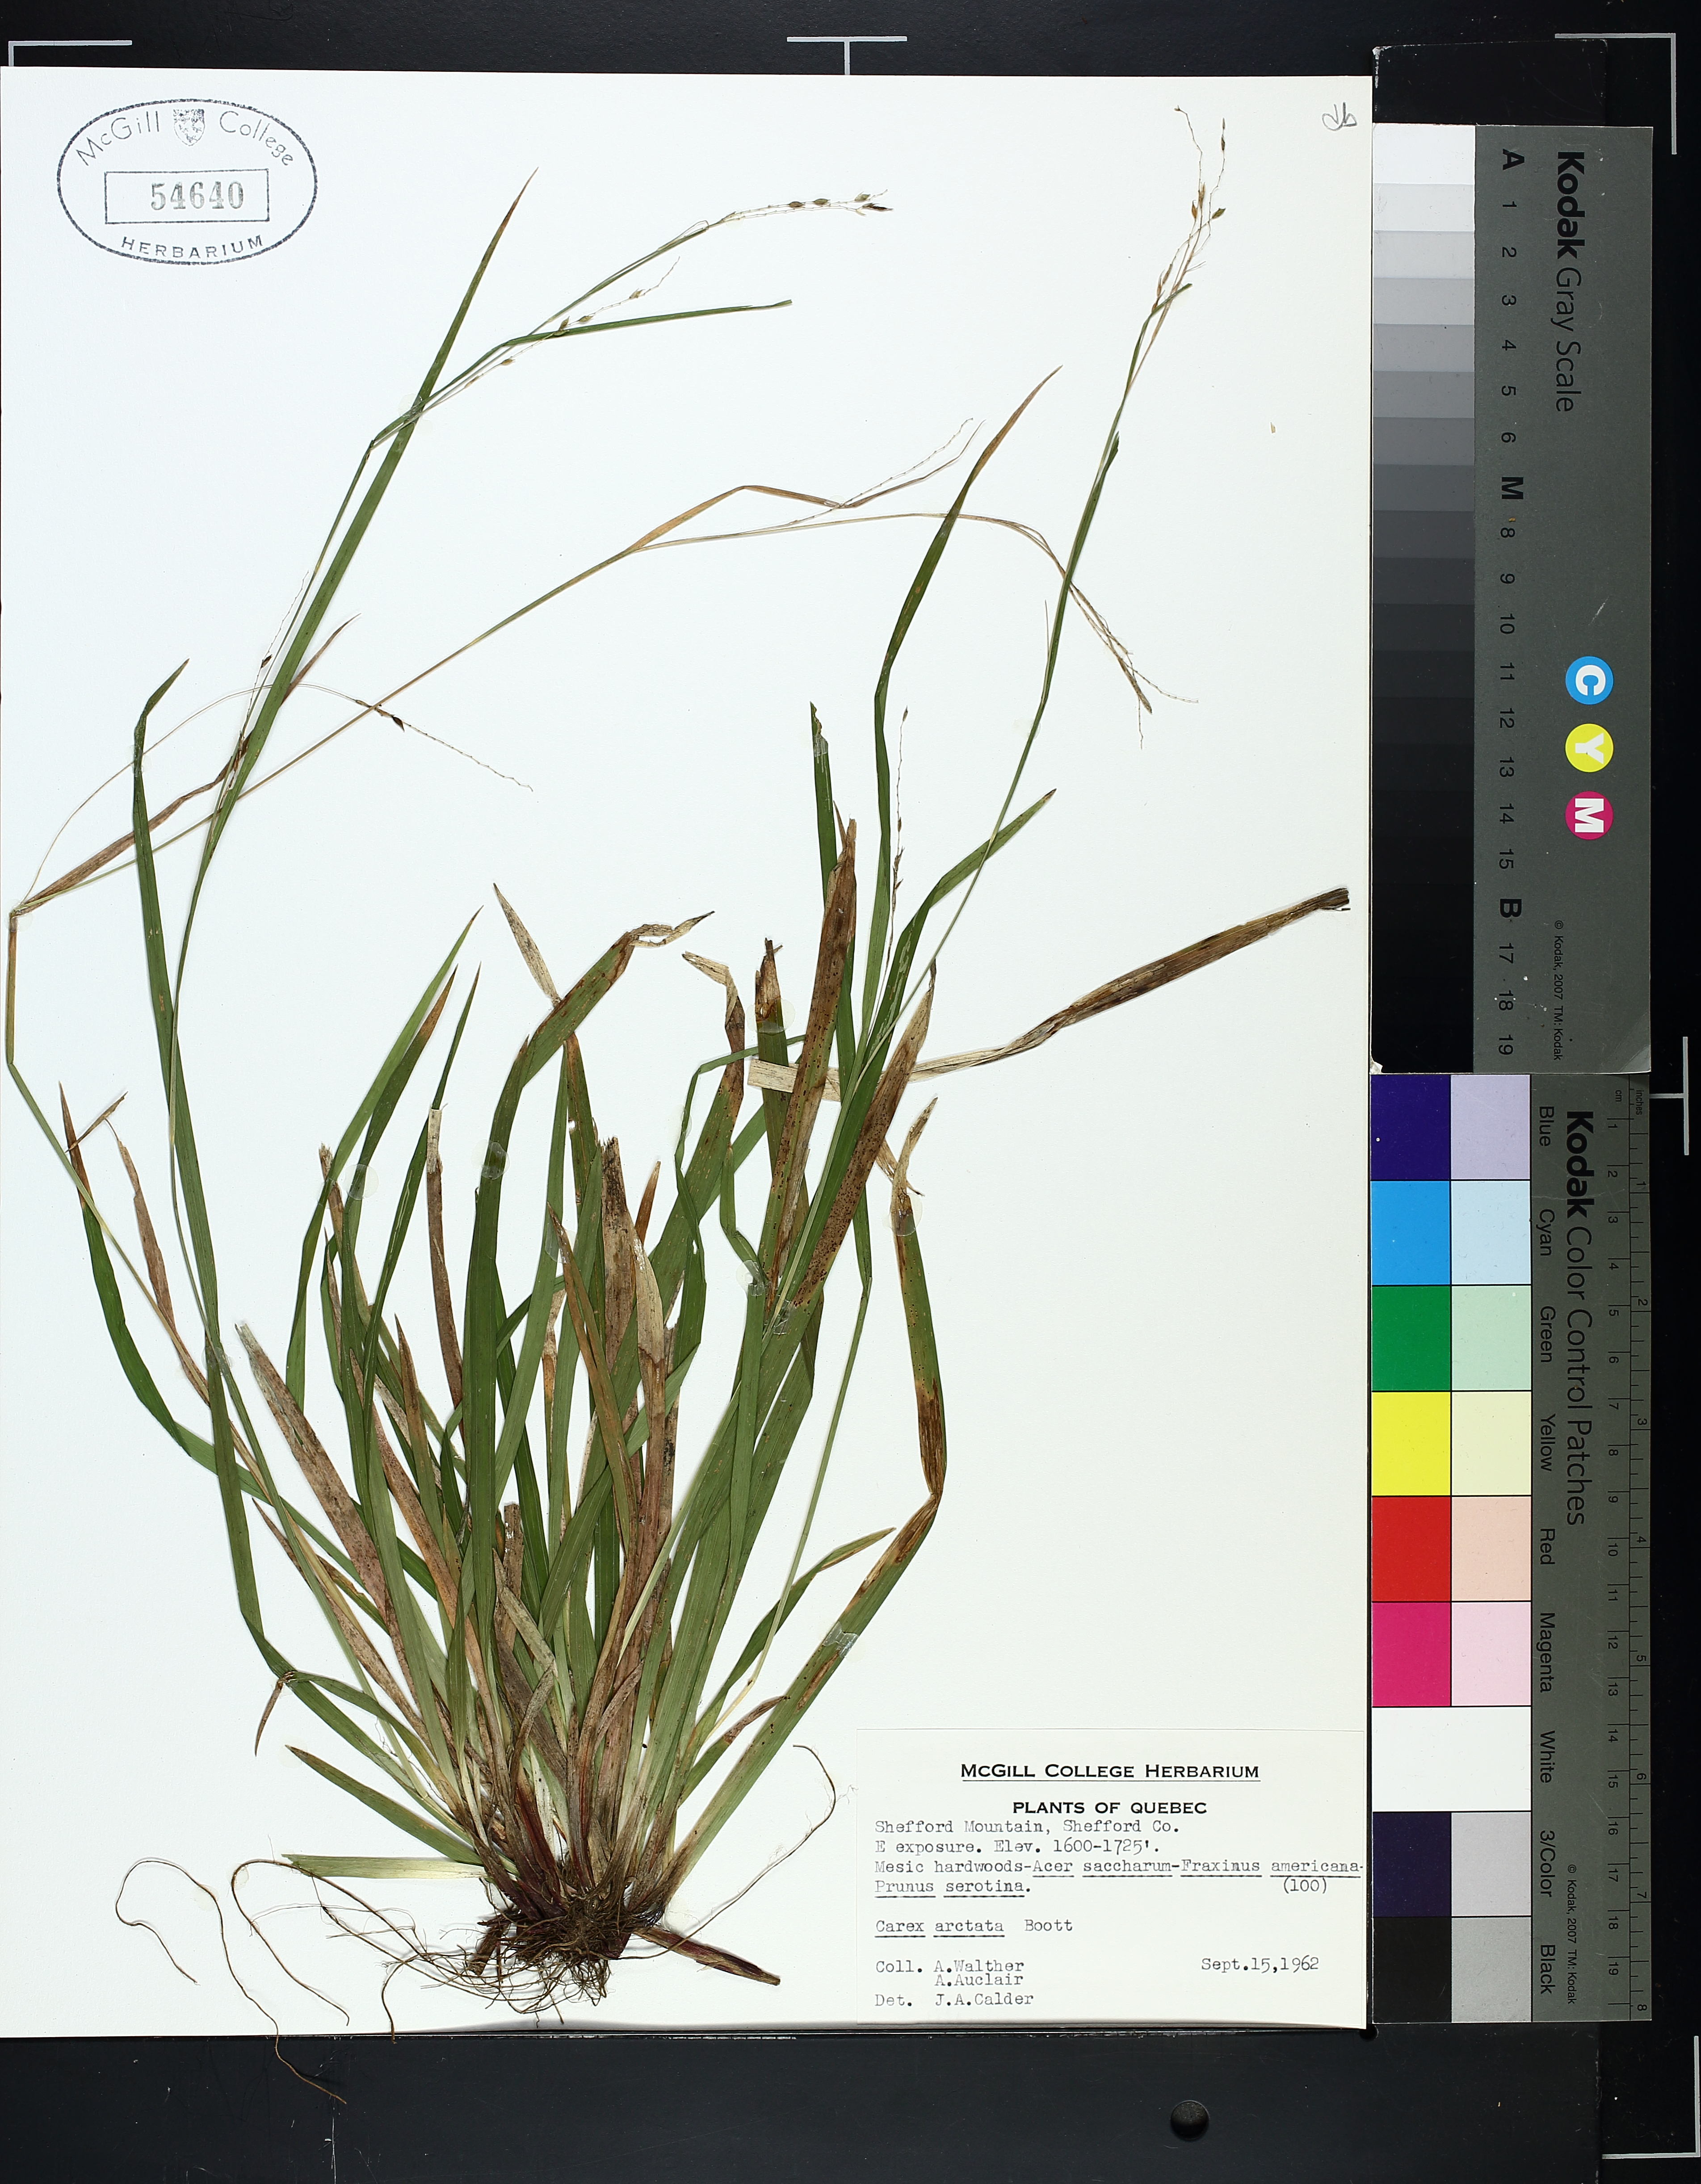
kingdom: Plantae
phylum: Tracheophyta
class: Liliopsida
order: Poales
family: Cyperaceae
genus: Carex
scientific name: Carex arctata
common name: Black sedge
